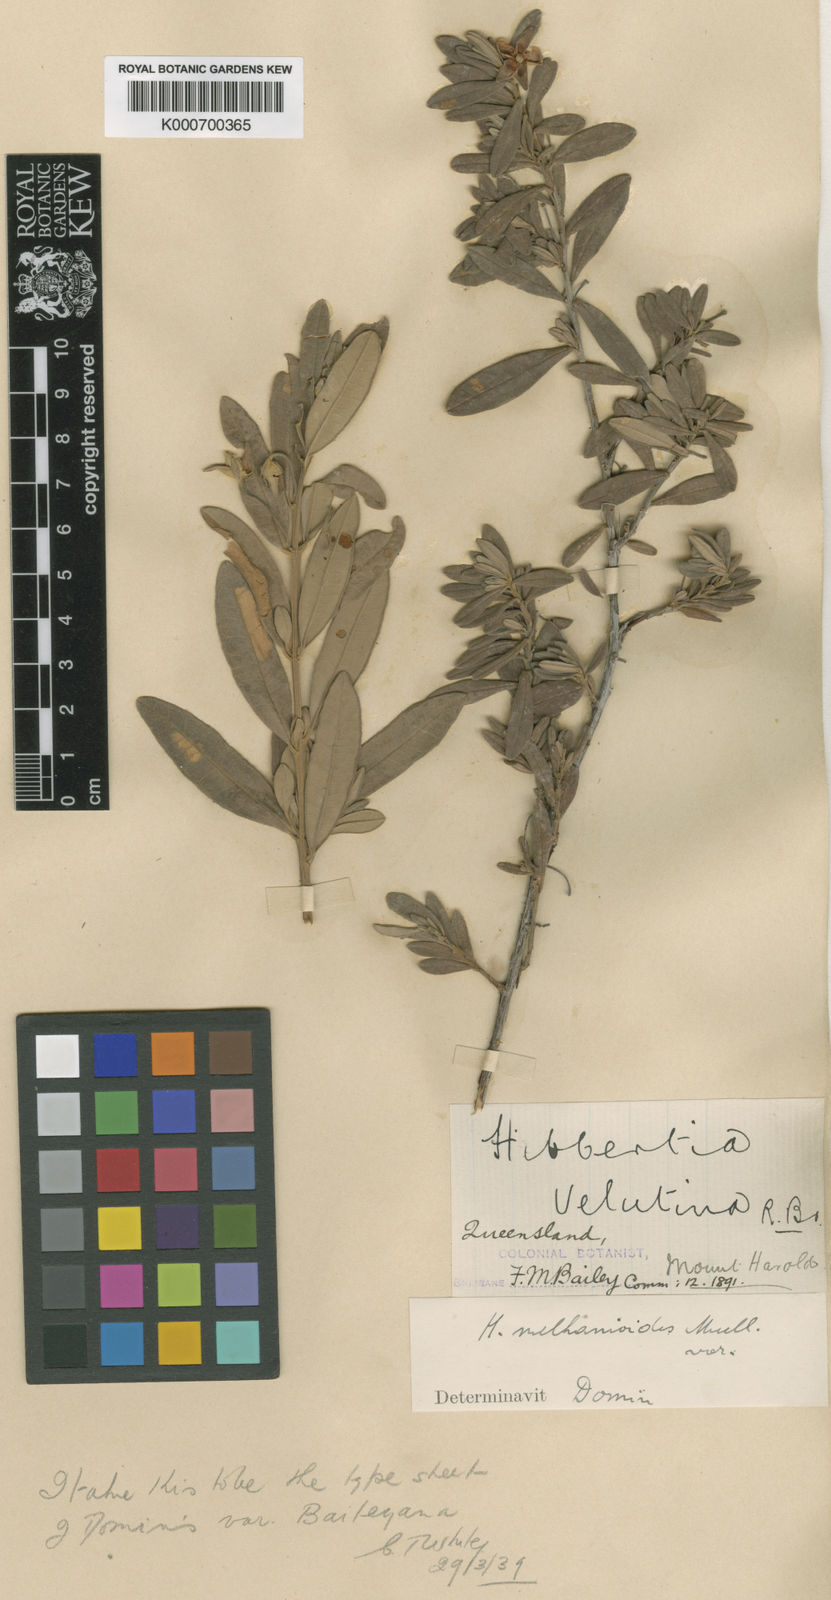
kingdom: Plantae
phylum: Tracheophyta
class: Magnoliopsida
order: Dilleniales
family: Dilleniaceae
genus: Hibbertia
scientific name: Hibbertia melhanioides
